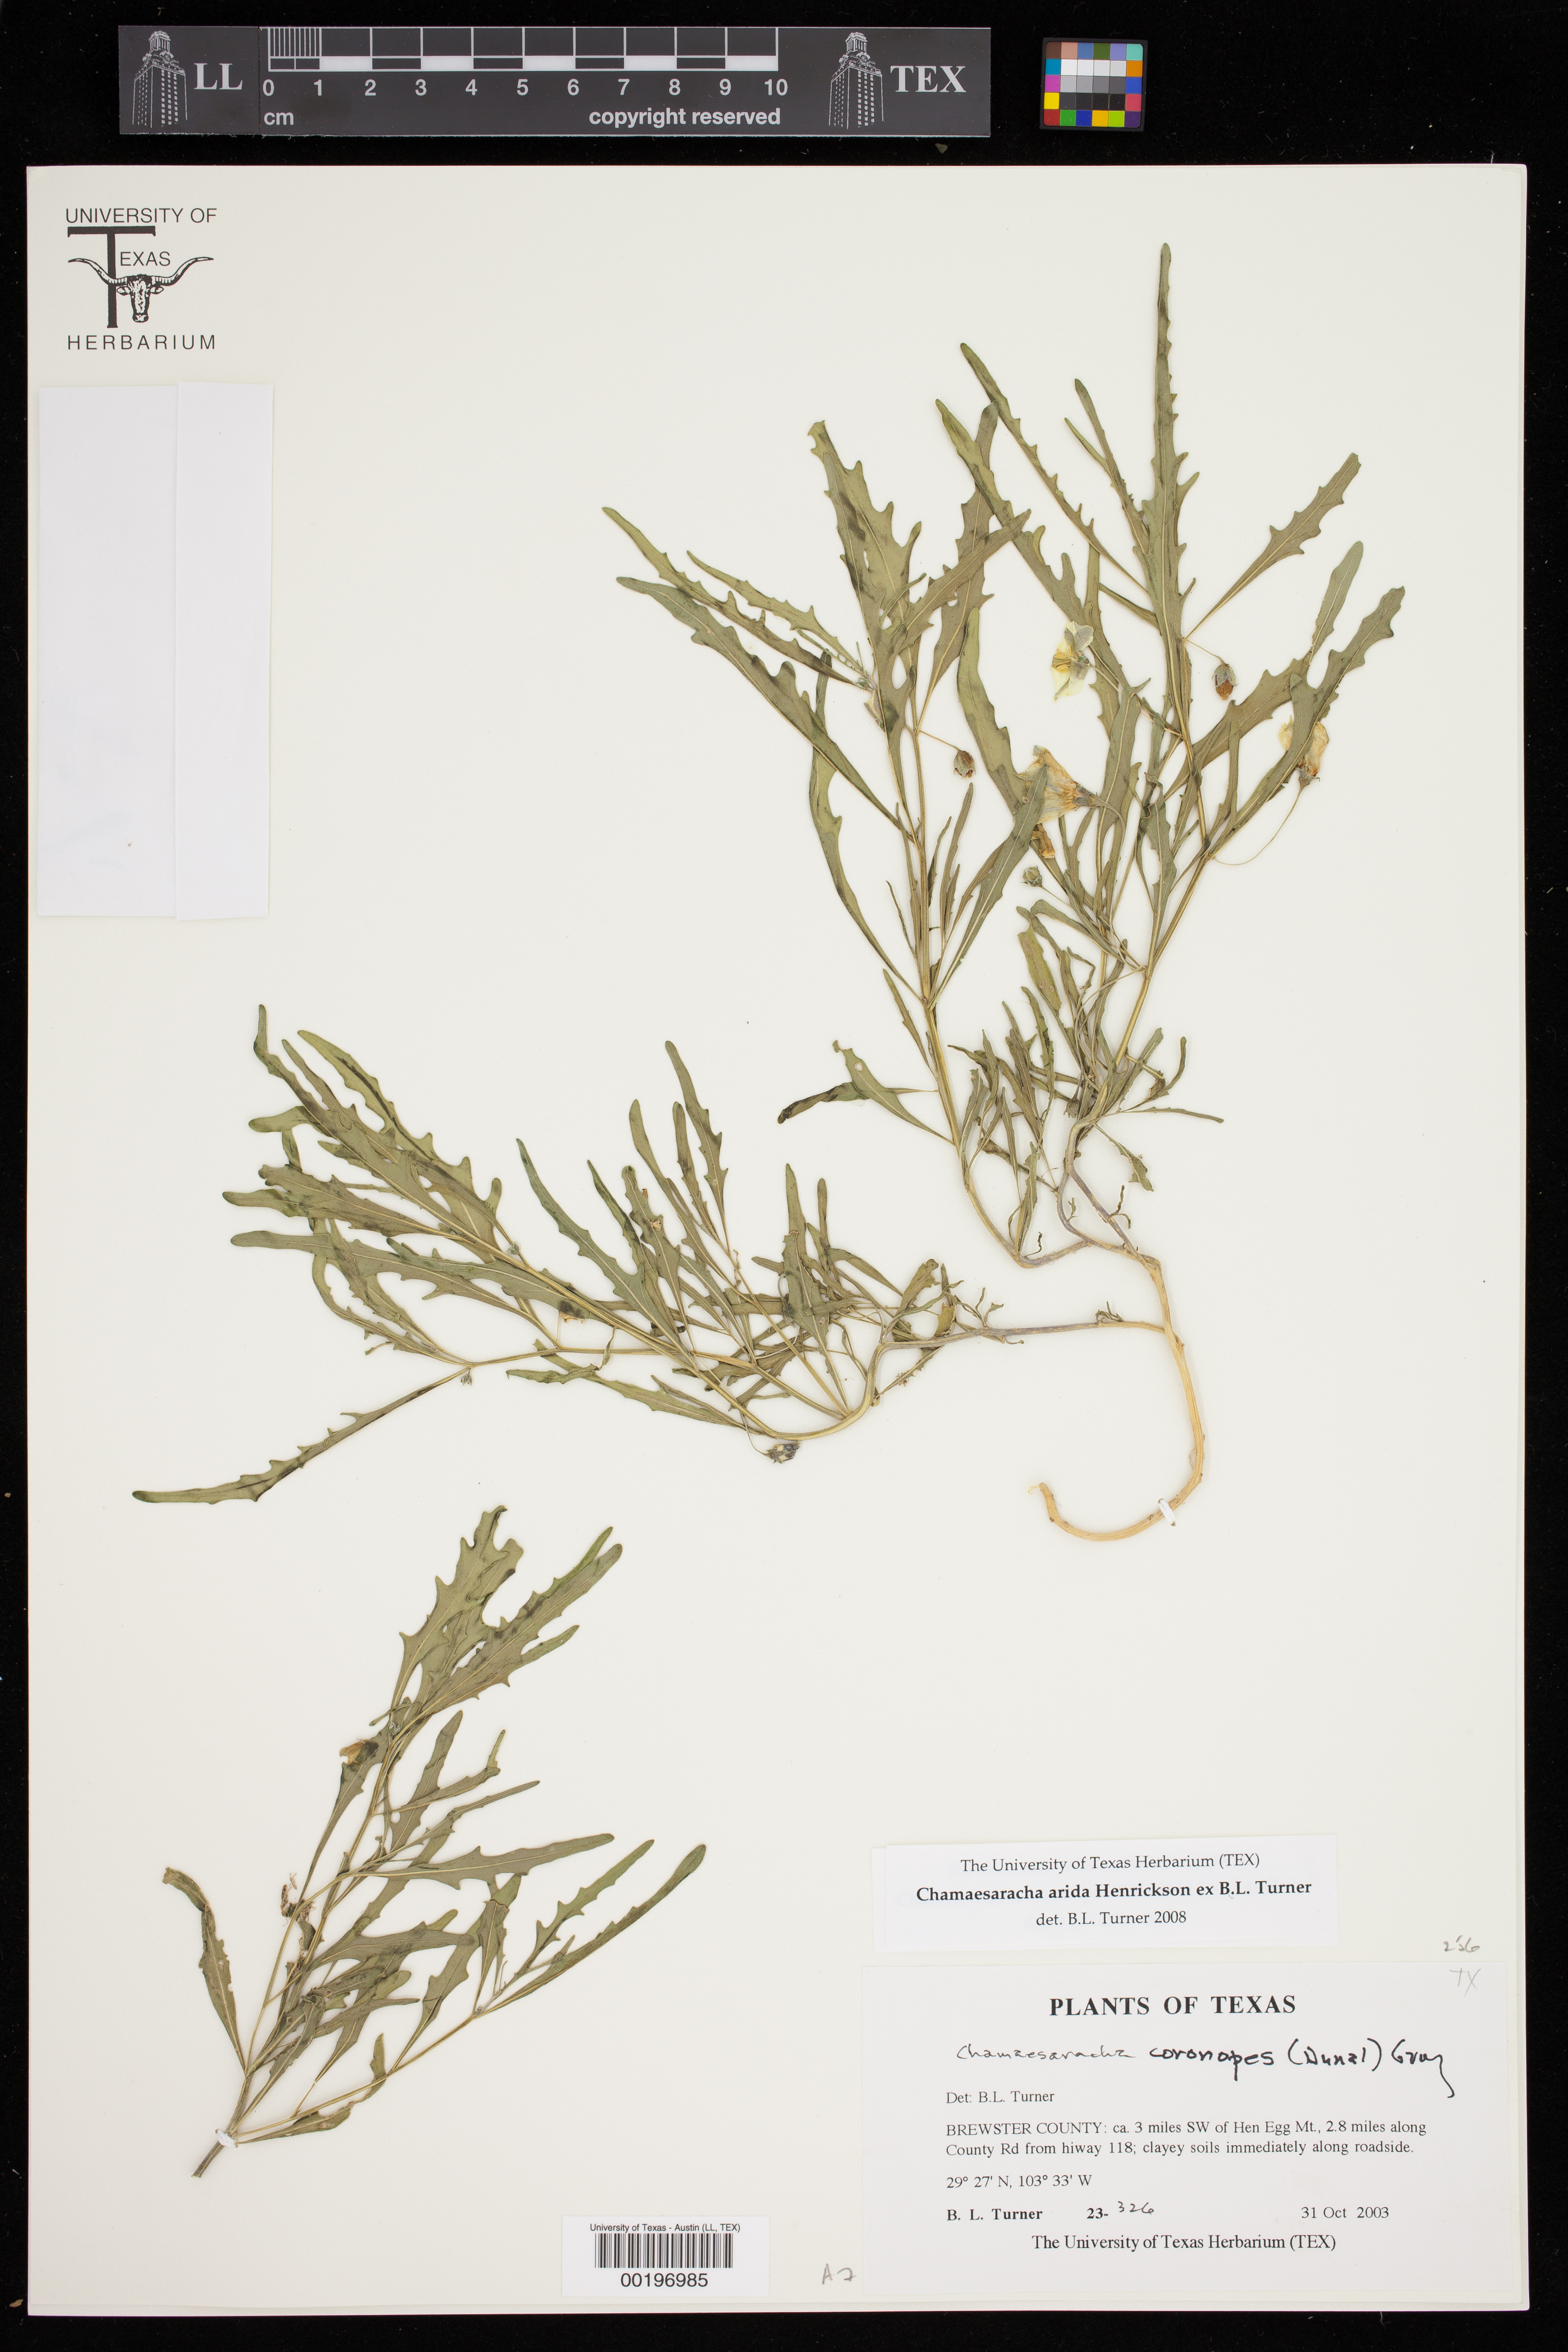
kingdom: Plantae
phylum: Tracheophyta
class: Magnoliopsida
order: Solanales
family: Solanaceae
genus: Chamaesaracha
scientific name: Chamaesaracha arida
